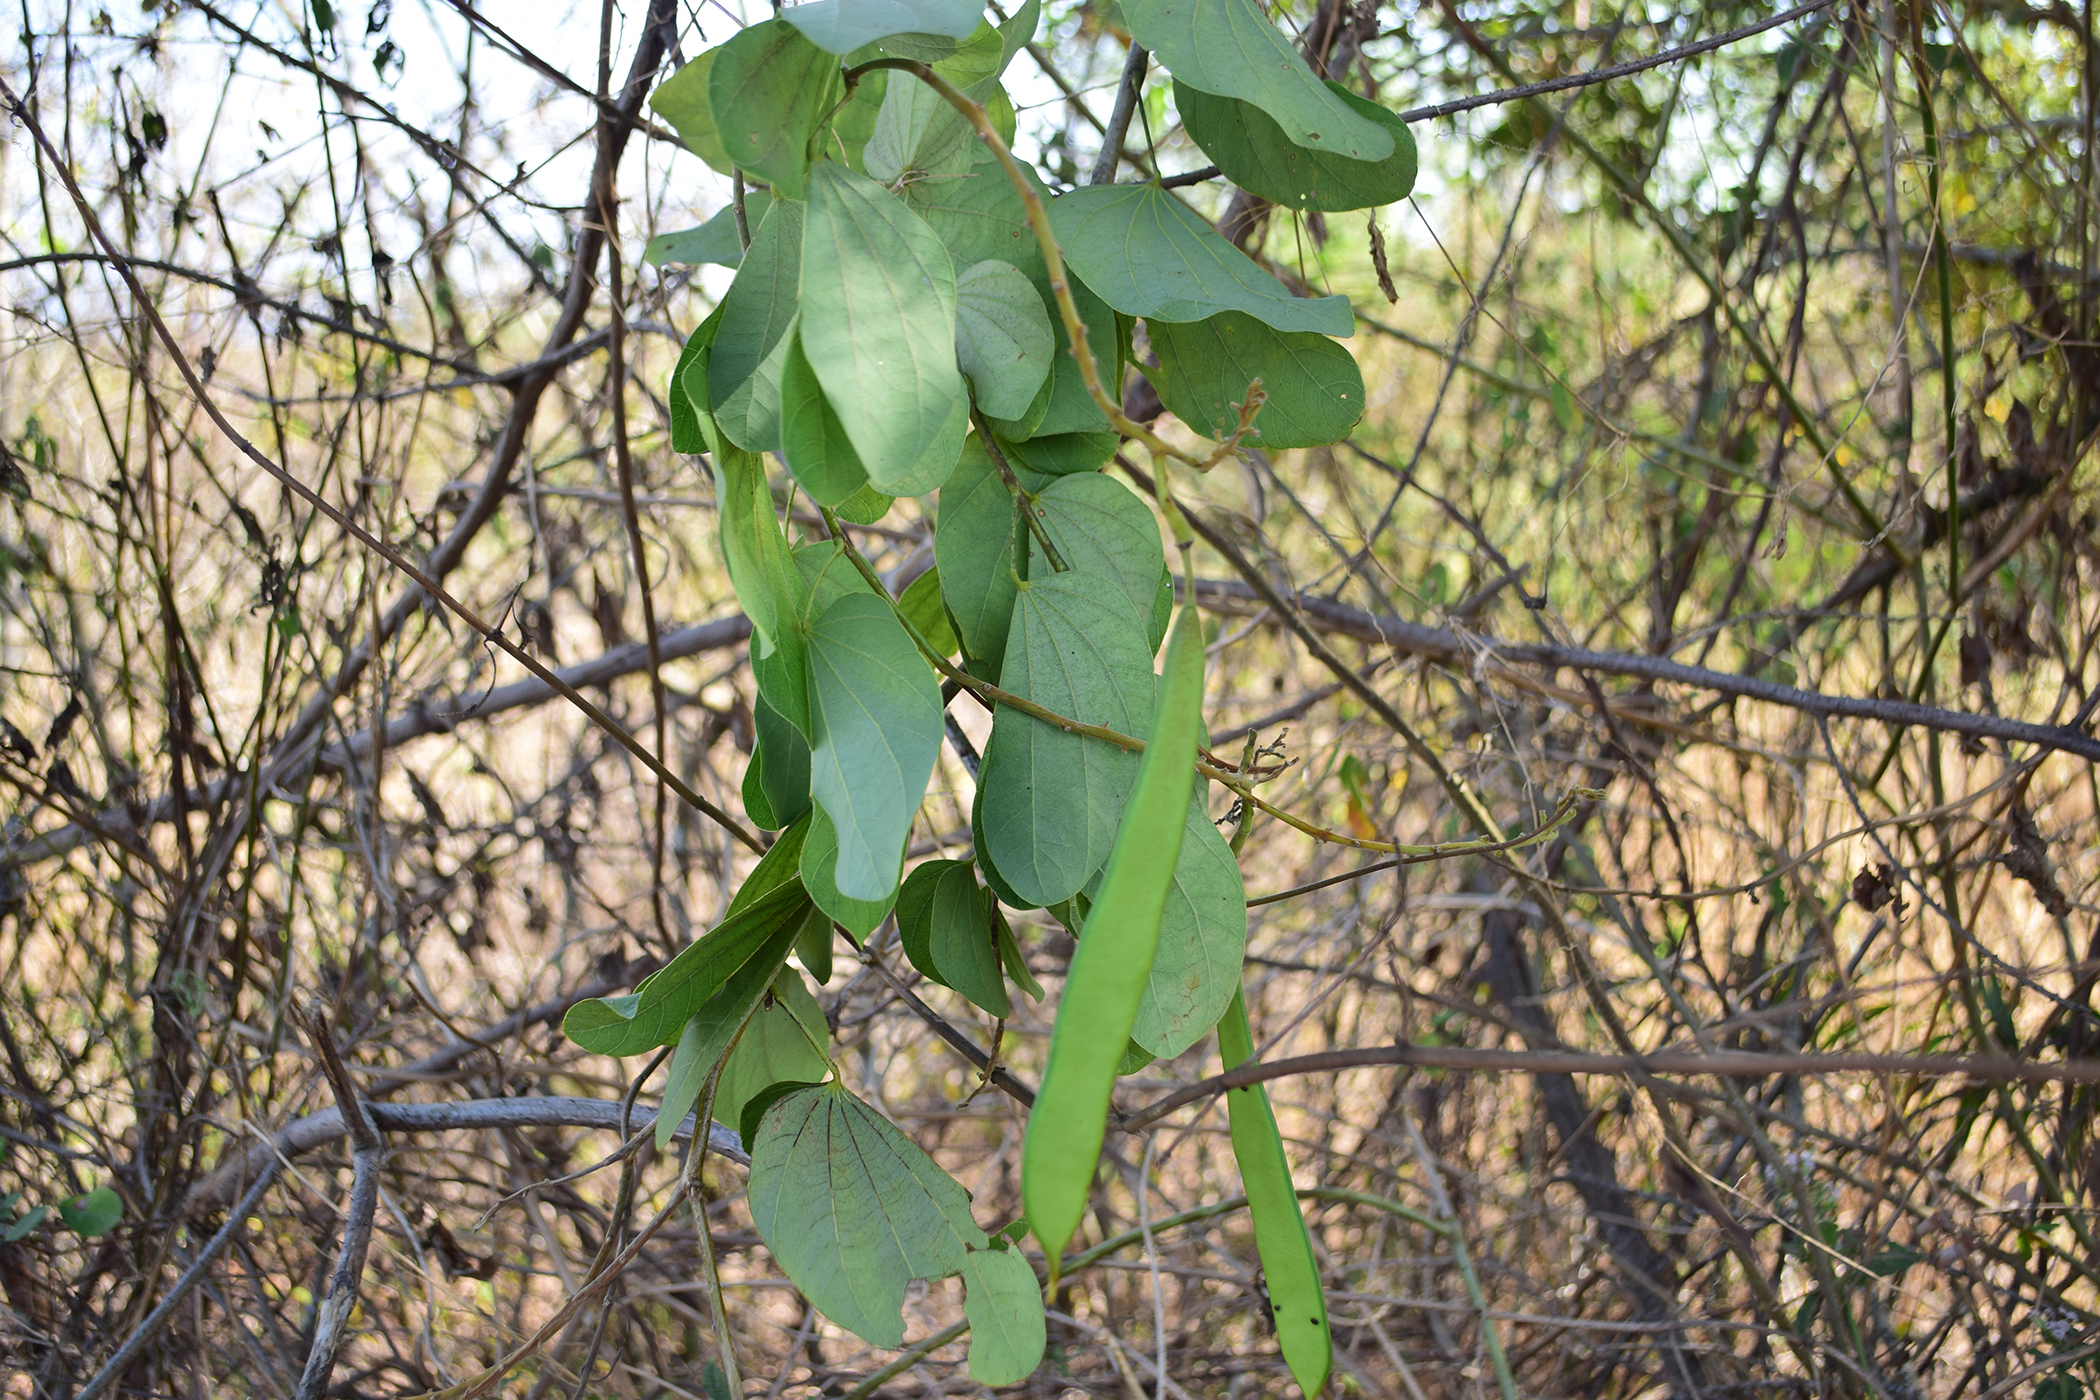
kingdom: Plantae
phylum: Tracheophyta
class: Magnoliopsida
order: Fabales
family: Fabaceae
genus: Bauhinia
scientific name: Bauhinia
